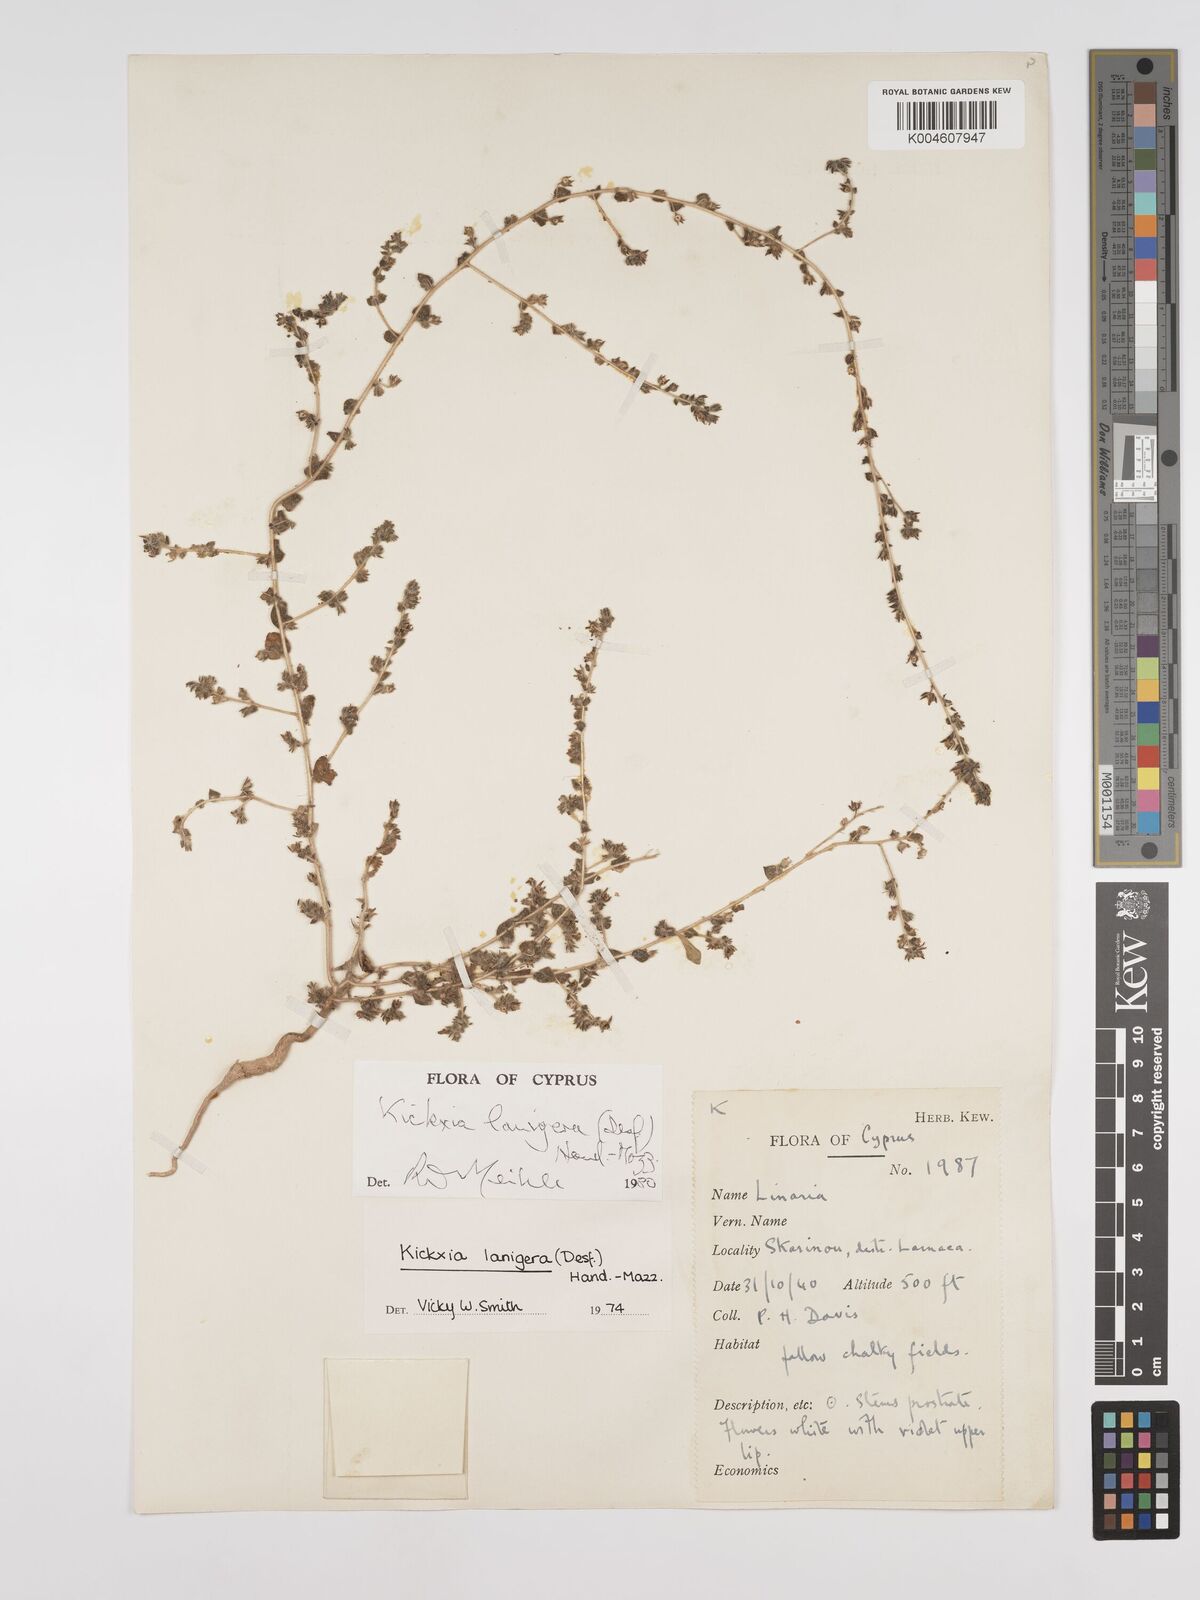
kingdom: Plantae
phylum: Tracheophyta
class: Magnoliopsida
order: Lamiales
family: Plantaginaceae
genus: Kickxia
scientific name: Kickxia lanigera
